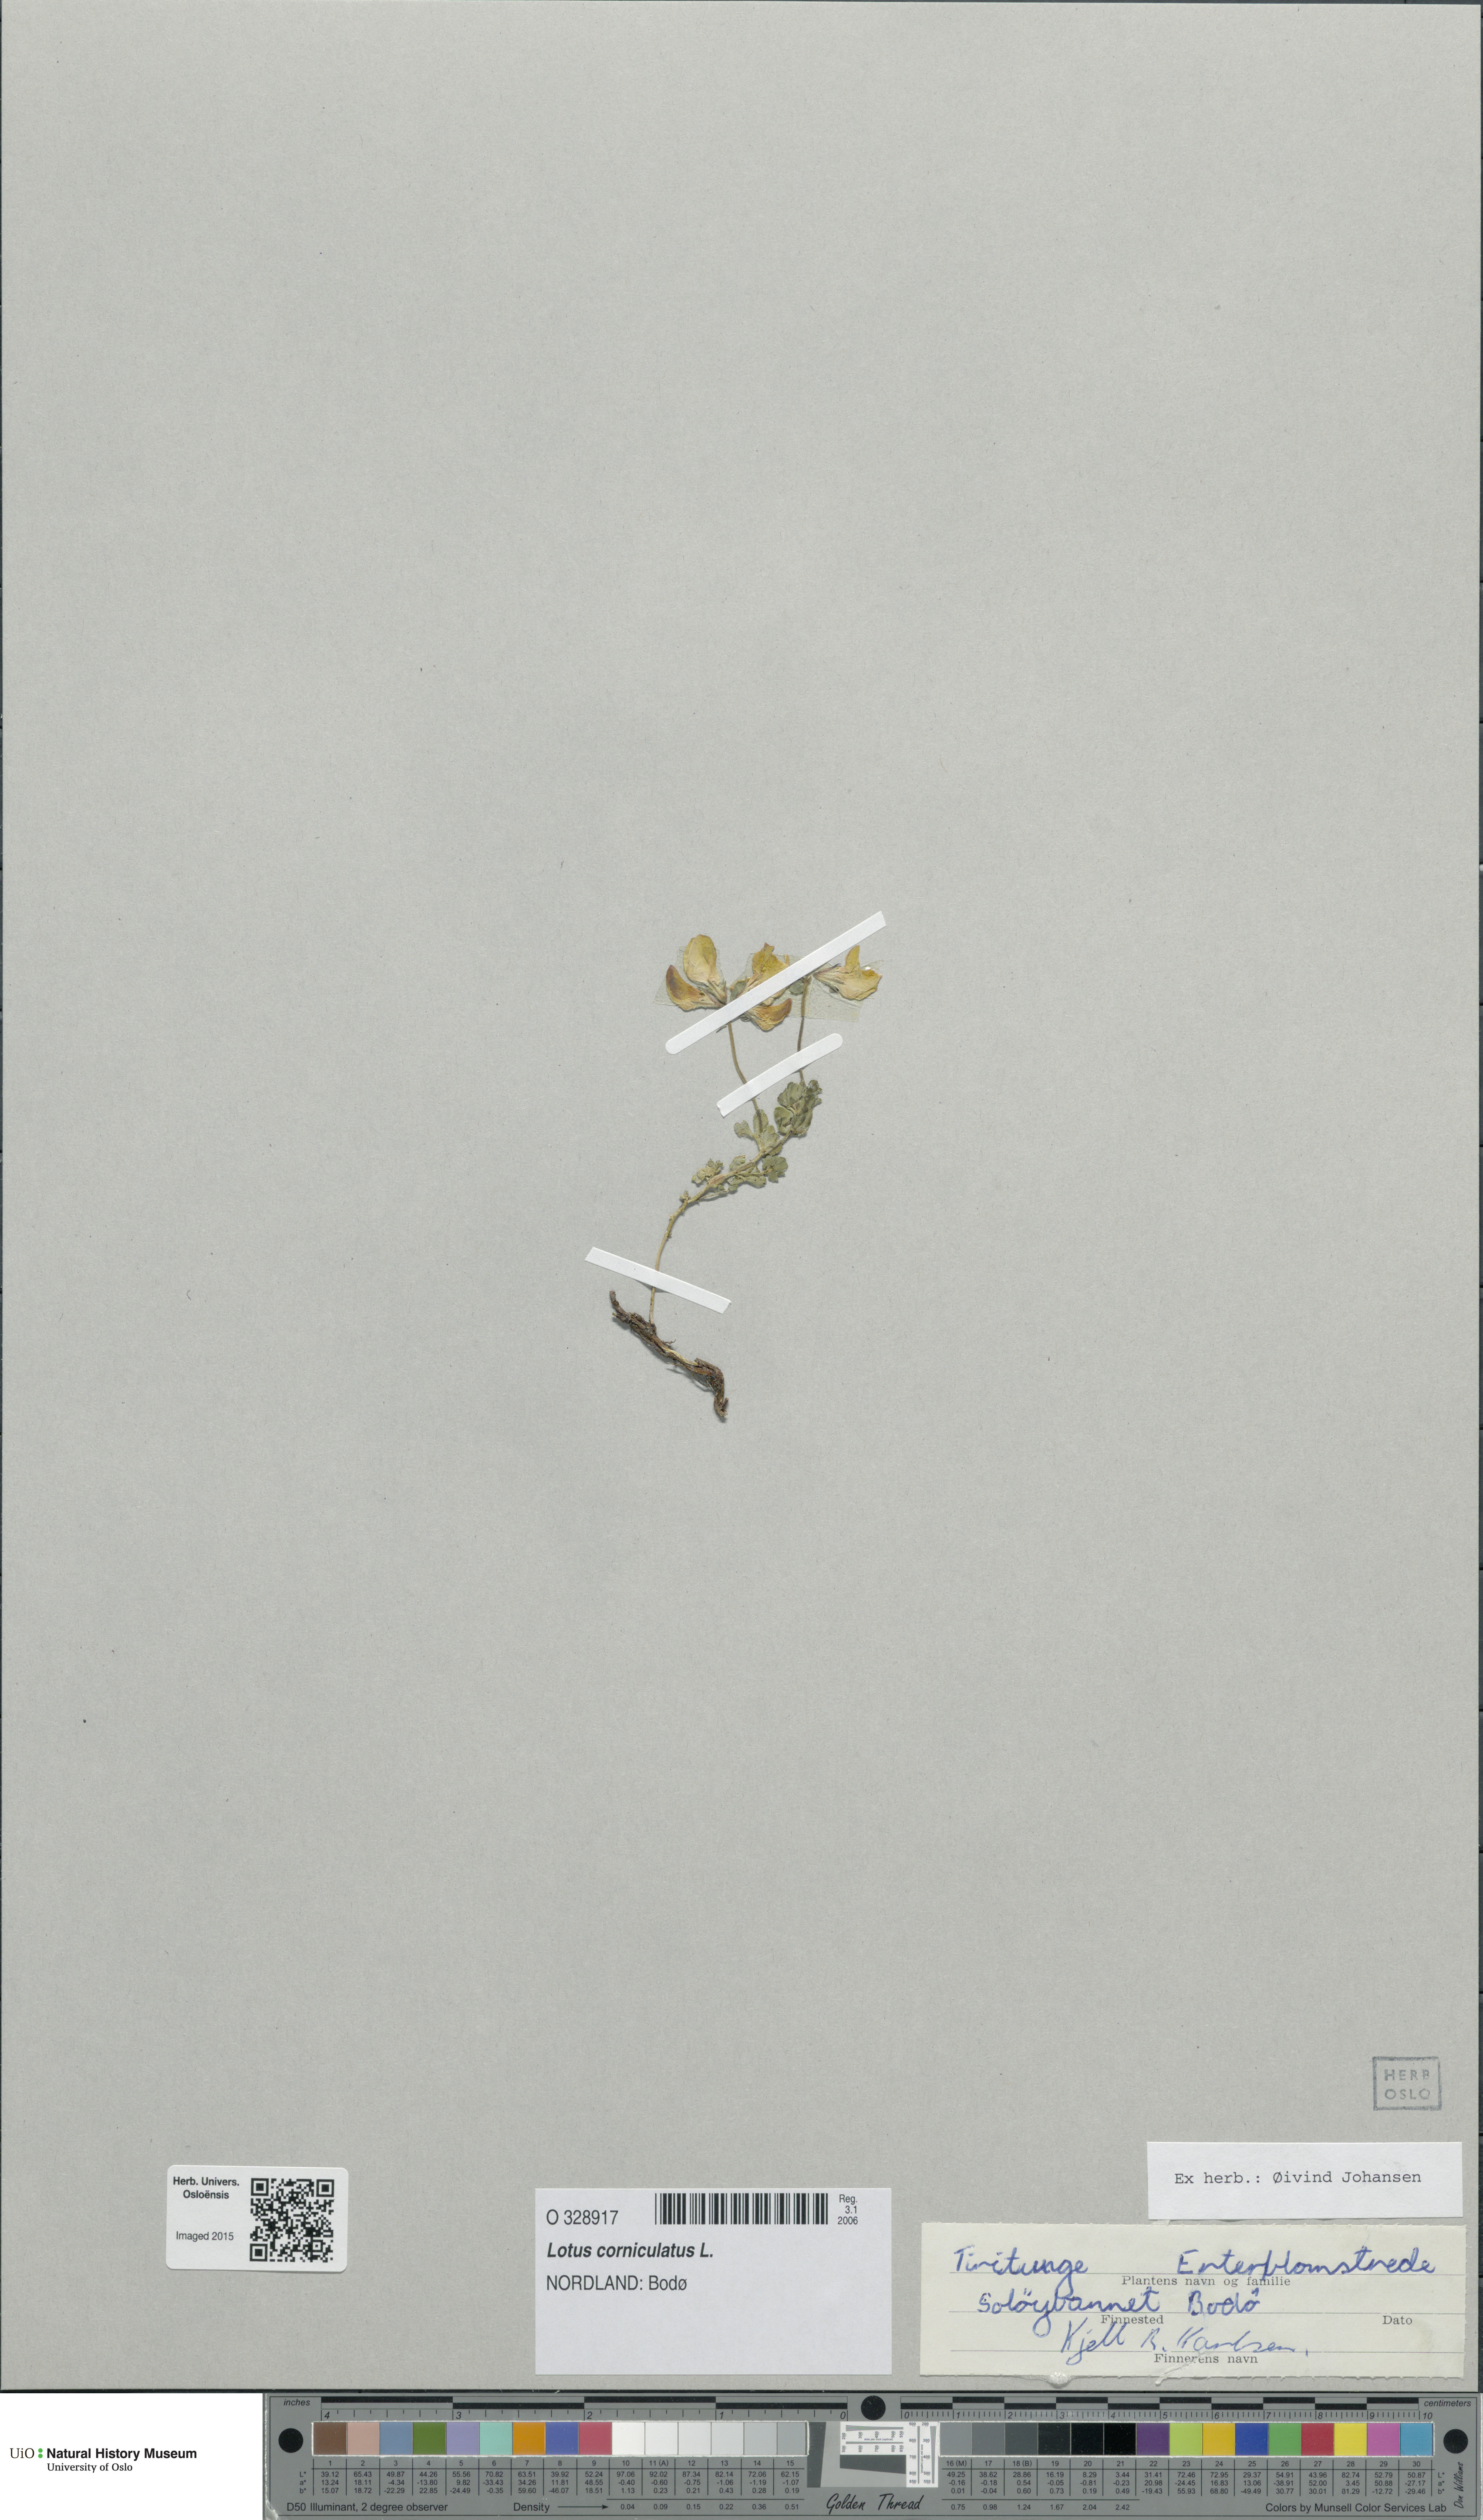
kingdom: Plantae
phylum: Tracheophyta
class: Magnoliopsida
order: Fabales
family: Fabaceae
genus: Lotus
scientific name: Lotus corniculatus
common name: Common bird's-foot-trefoil
